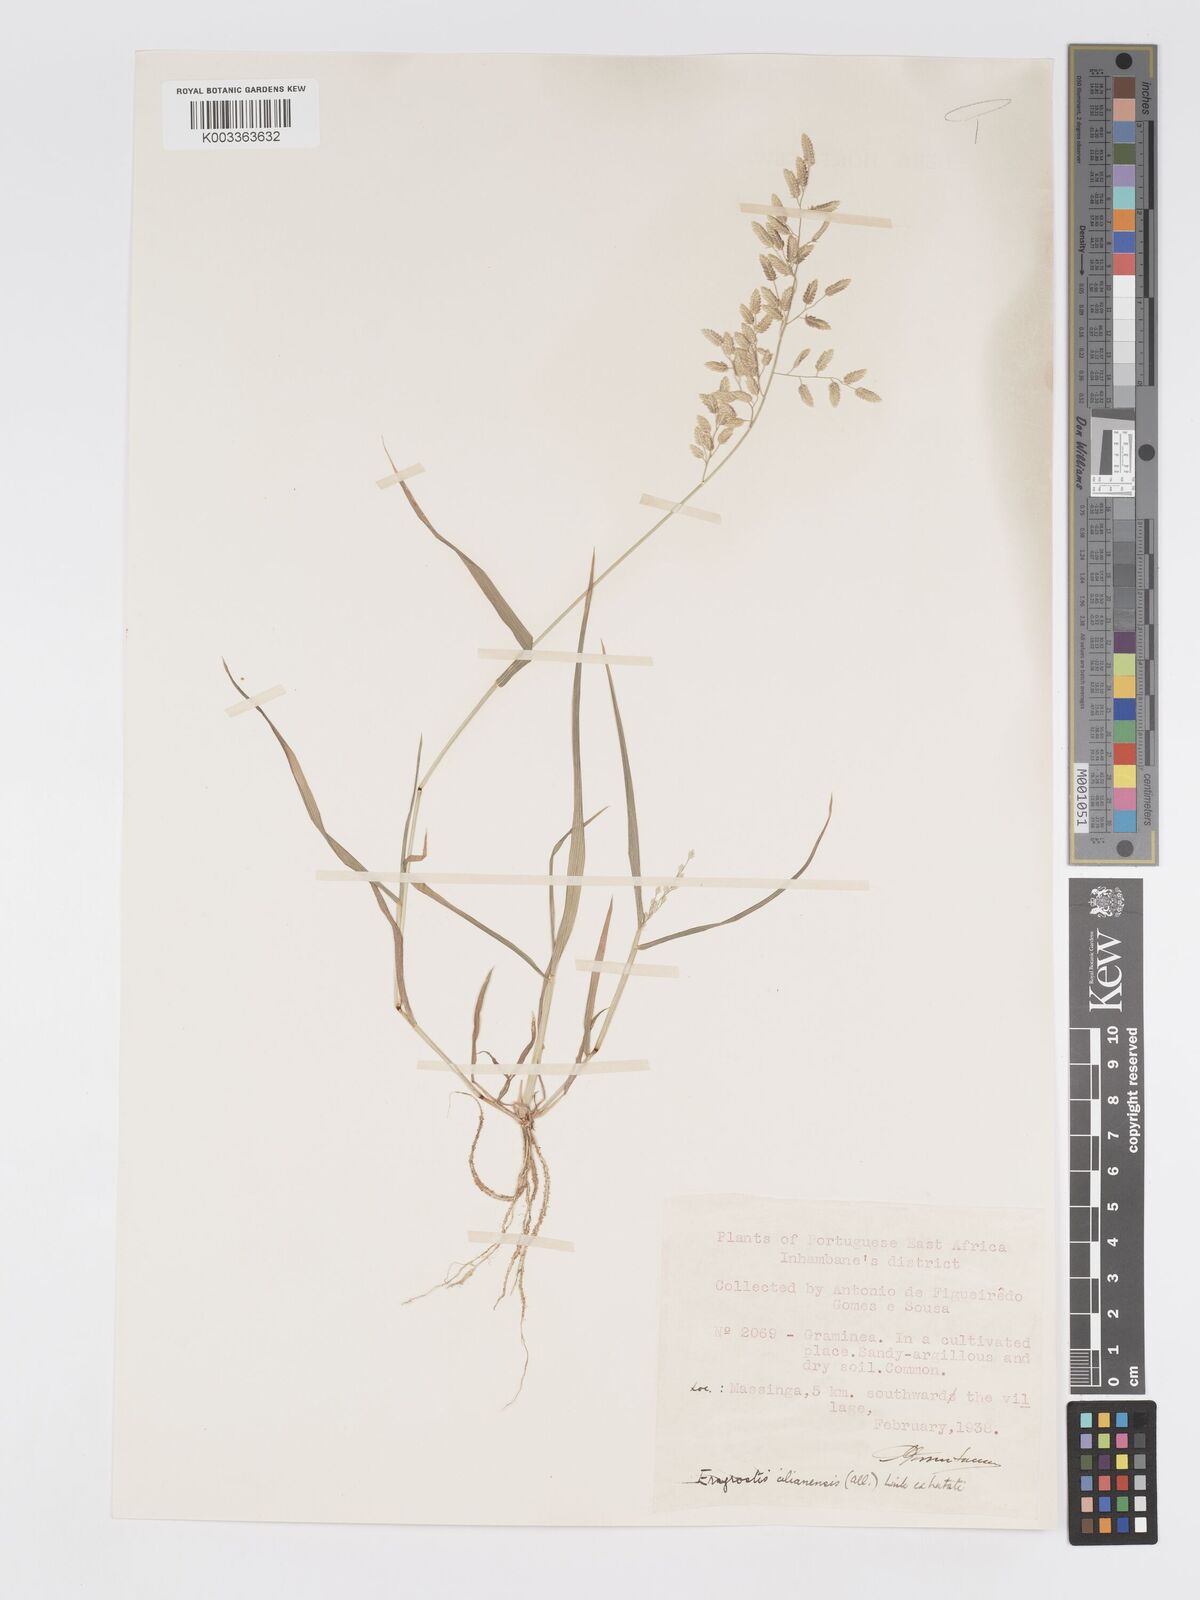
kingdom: Plantae
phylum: Tracheophyta
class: Liliopsida
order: Poales
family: Poaceae
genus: Eragrostis
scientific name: Eragrostis cilianensis
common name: Stinkgrass
